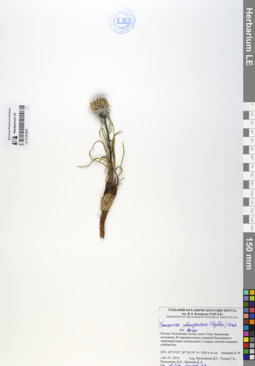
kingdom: Plantae
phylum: Tracheophyta
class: Magnoliopsida
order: Asterales
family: Asteraceae
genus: Saussurea
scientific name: Saussurea schanginiana
